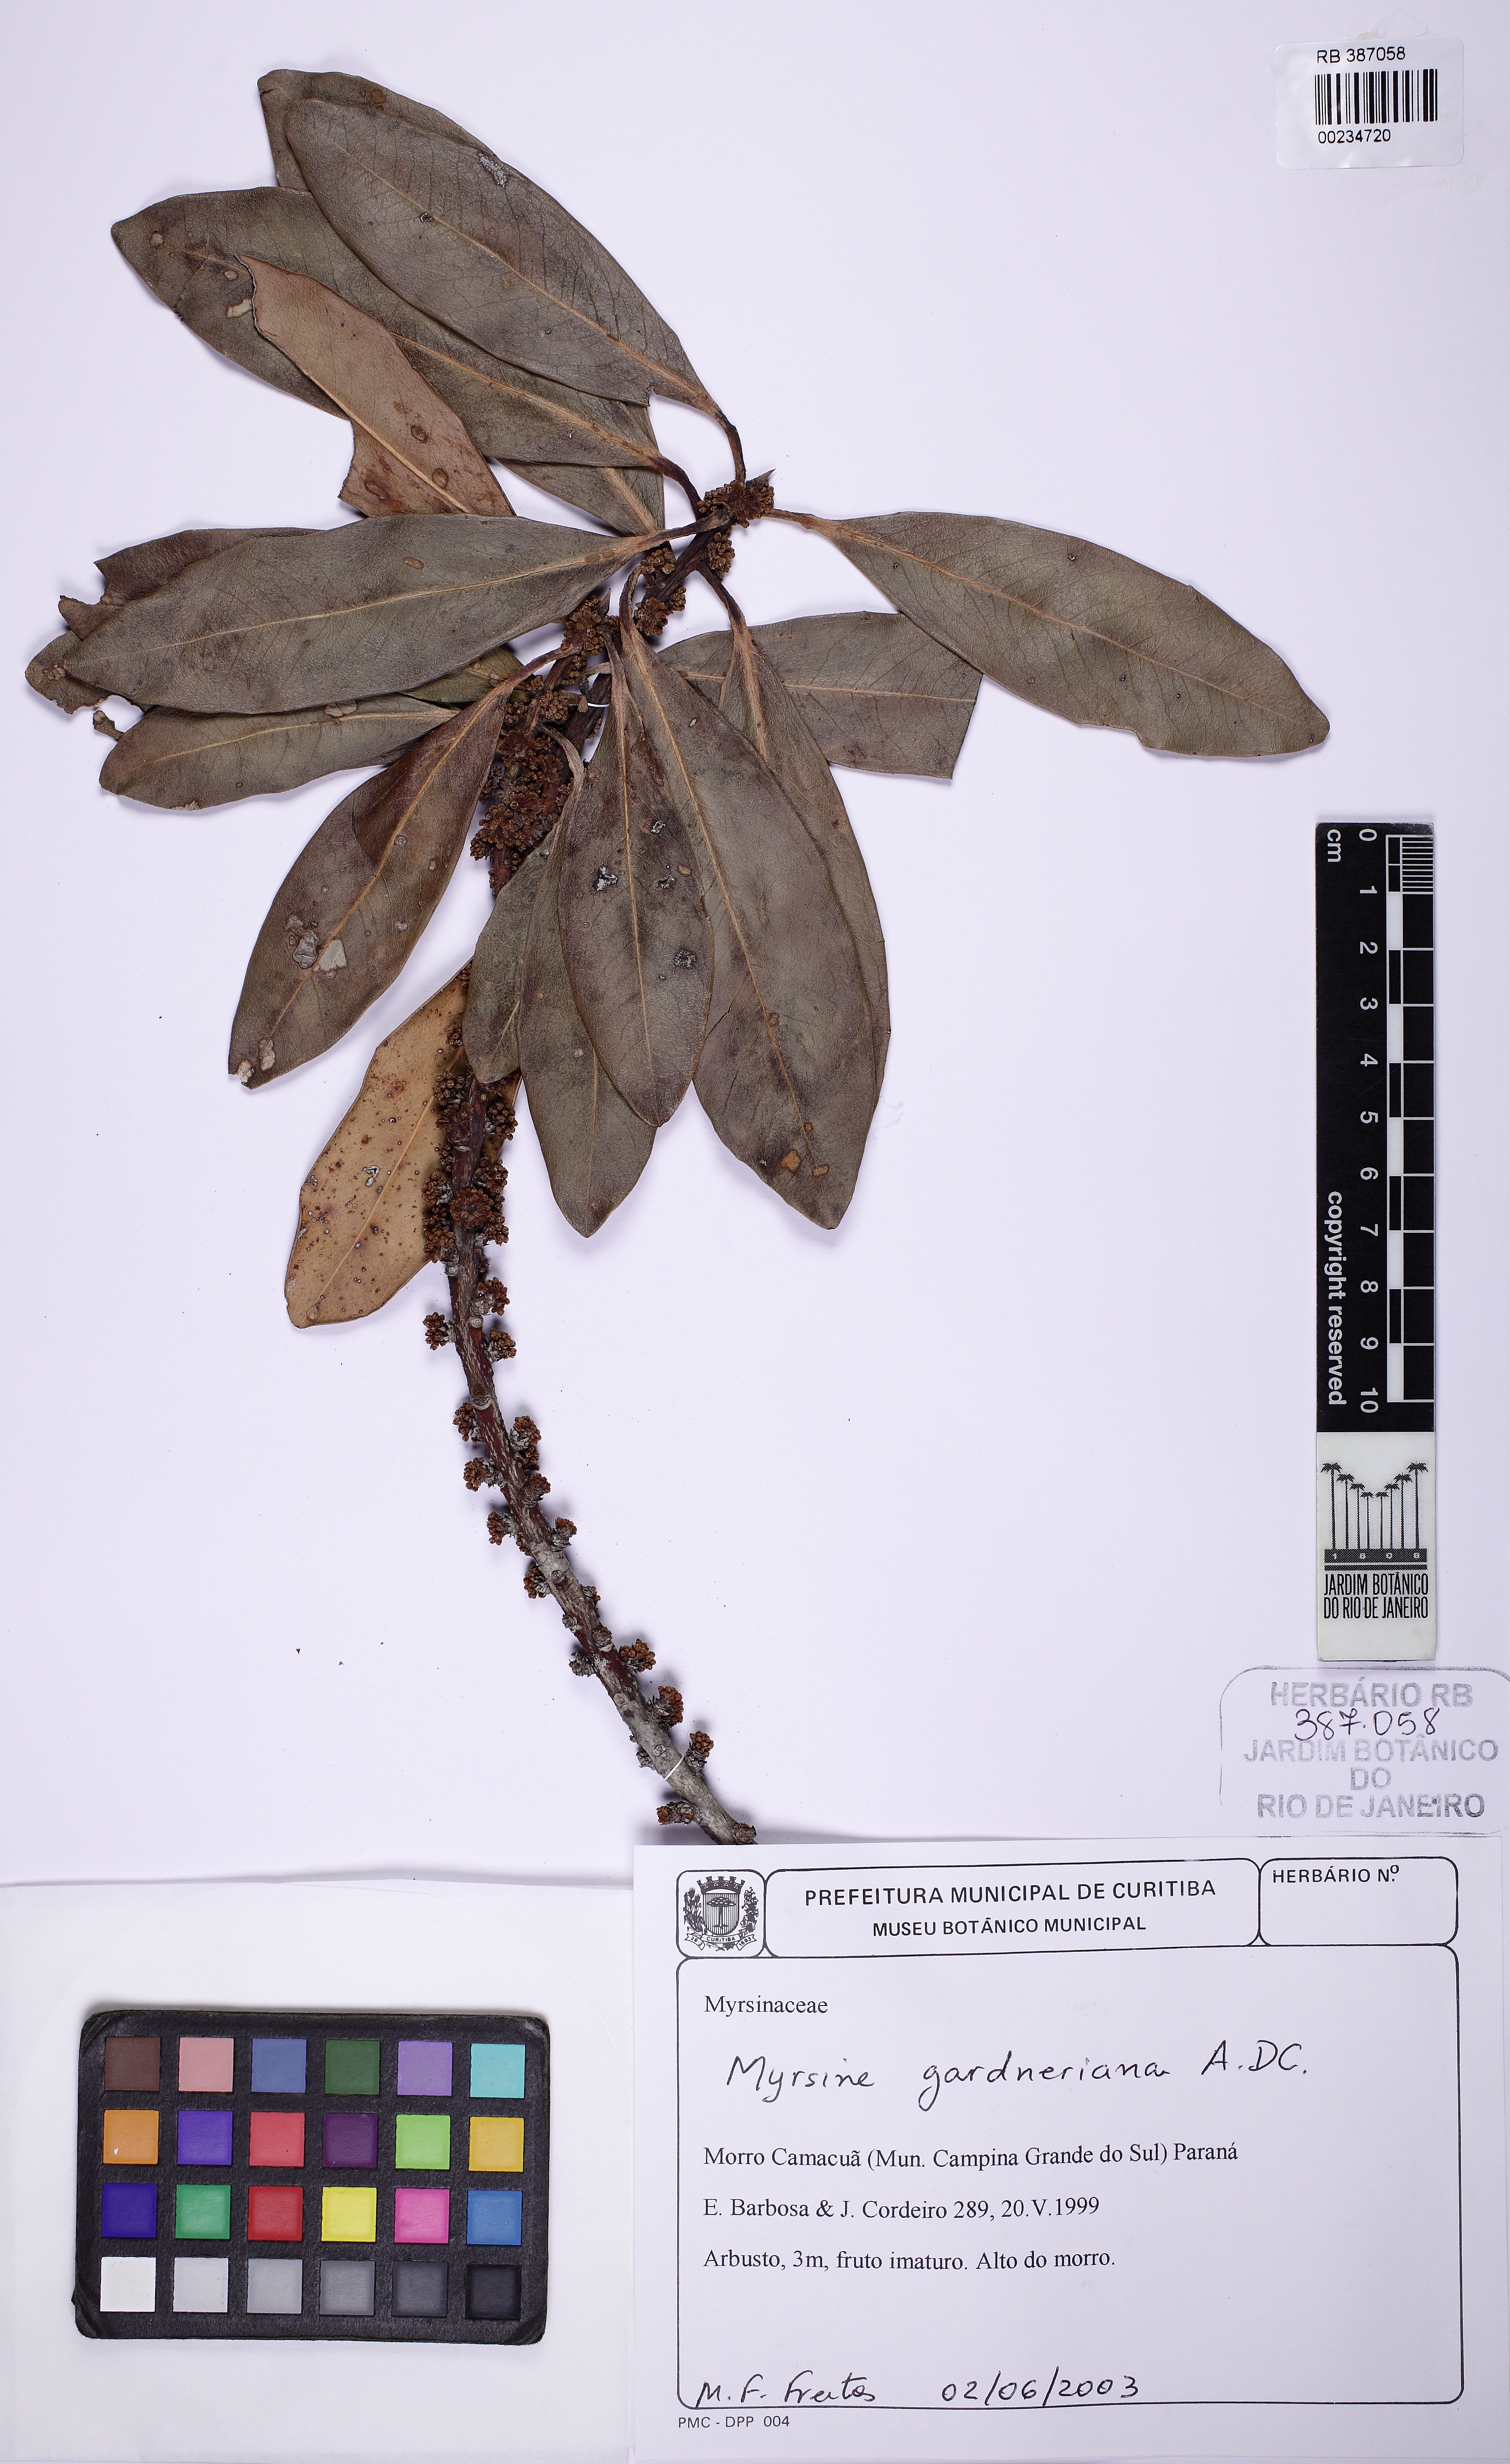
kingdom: Plantae
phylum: Tracheophyta
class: Magnoliopsida
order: Ericales
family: Primulaceae
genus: Myrsine
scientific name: Myrsine gardneriana
